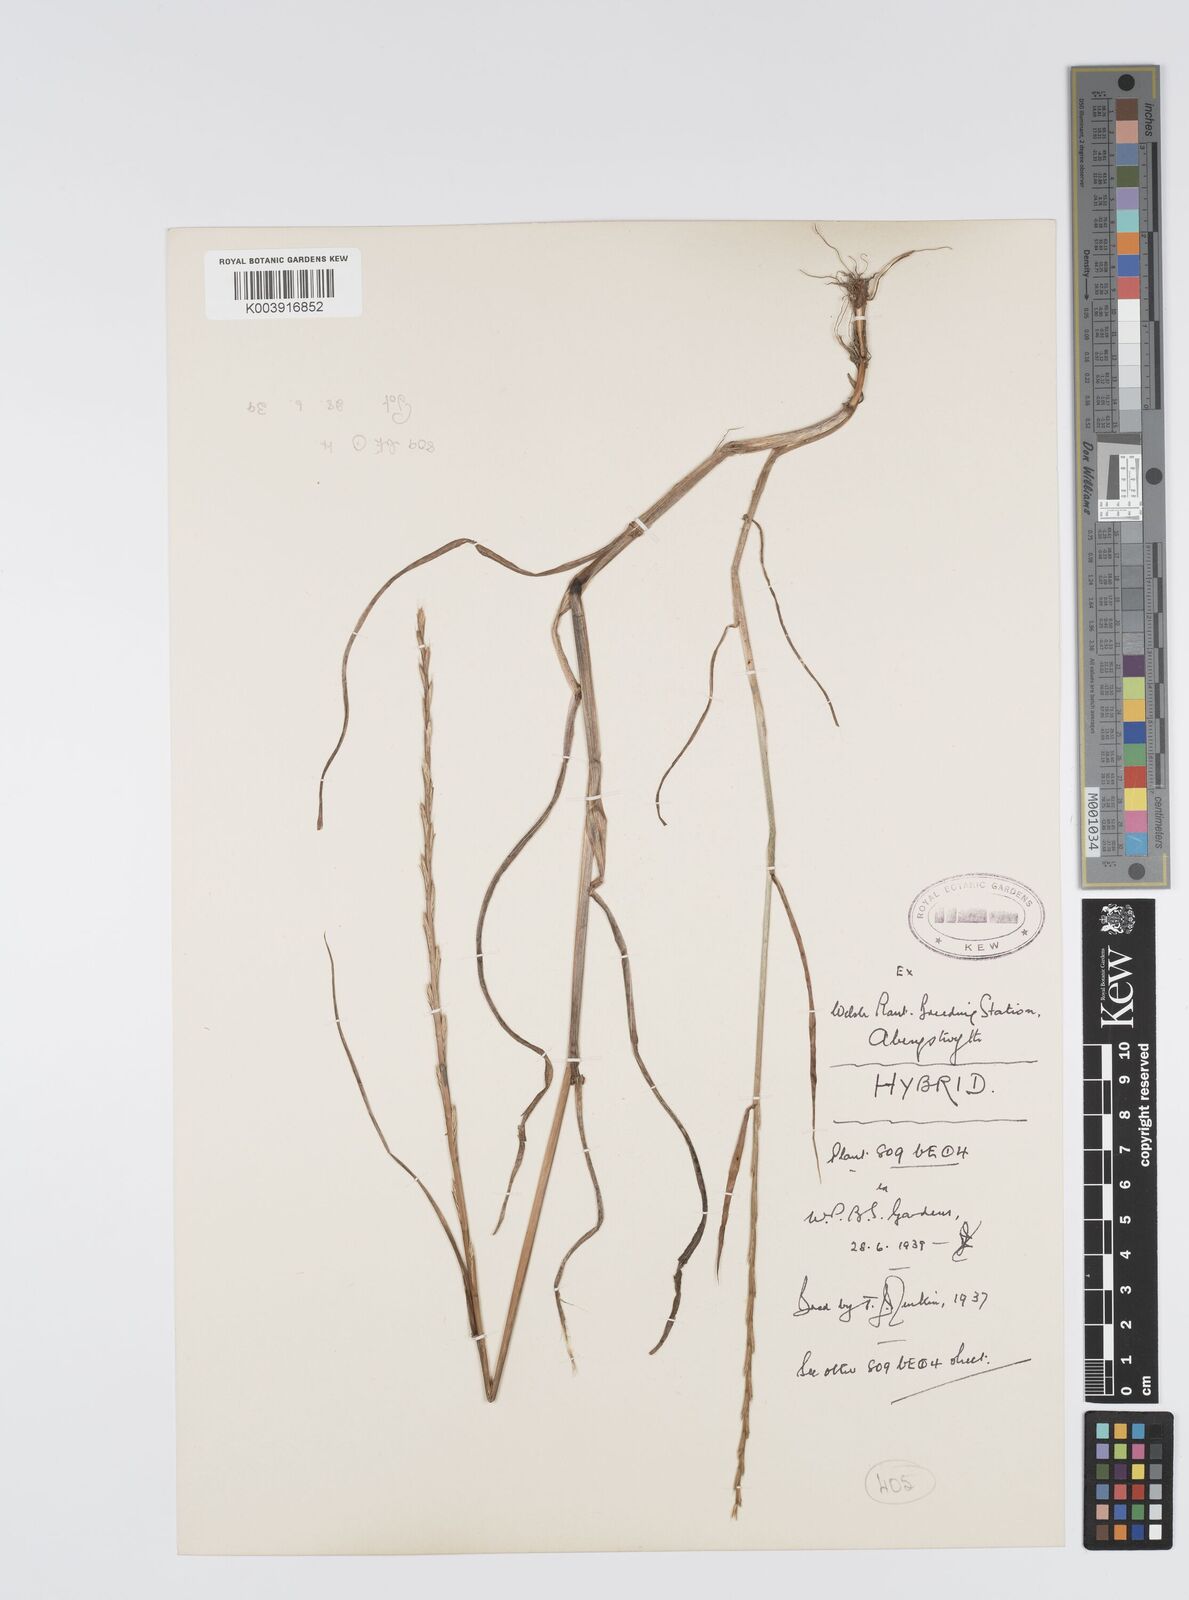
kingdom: Plantae
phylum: Tracheophyta
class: Liliopsida
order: Poales
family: Poaceae
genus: Lolium
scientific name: Lolium multiflorum
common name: Annual ryegrass
